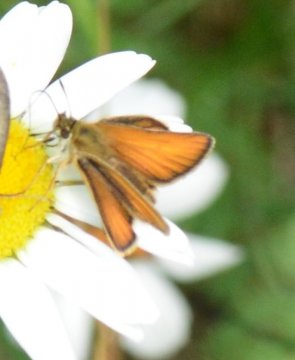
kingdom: Animalia
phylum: Arthropoda
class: Insecta
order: Lepidoptera
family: Hesperiidae
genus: Thymelicus
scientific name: Thymelicus lineola
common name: European Skipper
